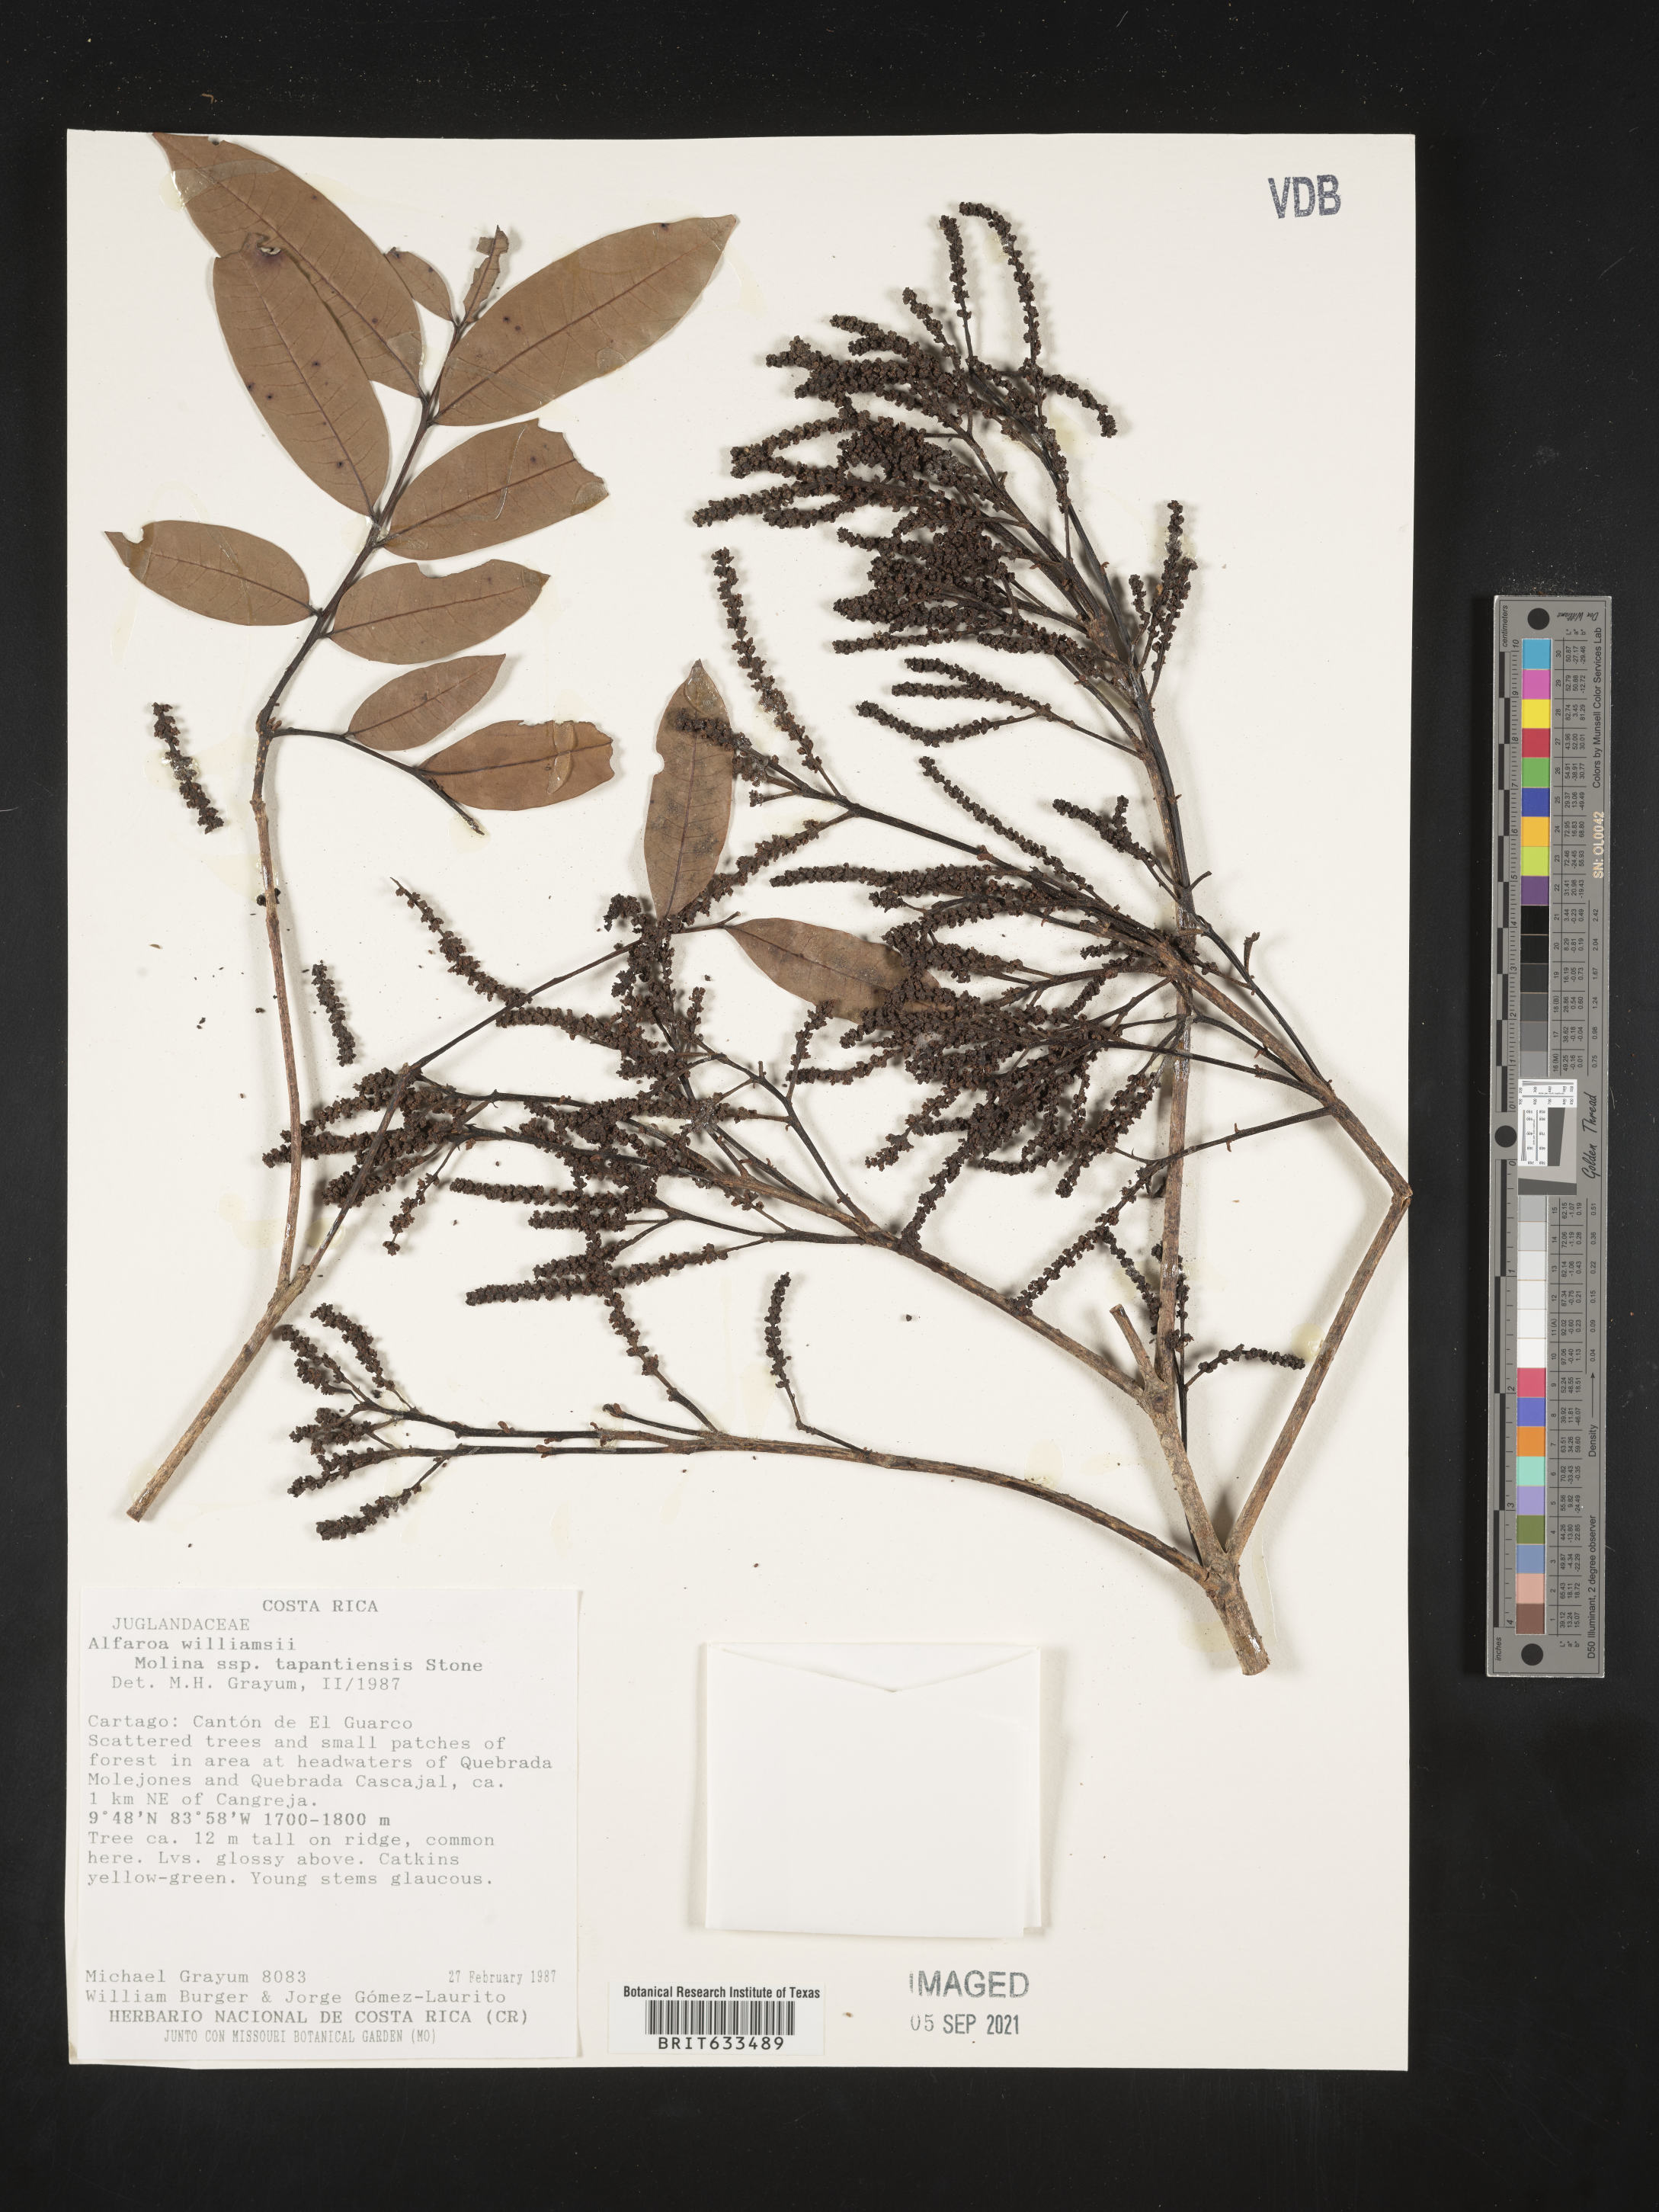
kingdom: Plantae
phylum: Tracheophyta
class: Magnoliopsida
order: Fagales
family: Juglandaceae
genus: Alfaroa
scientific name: Alfaroa
